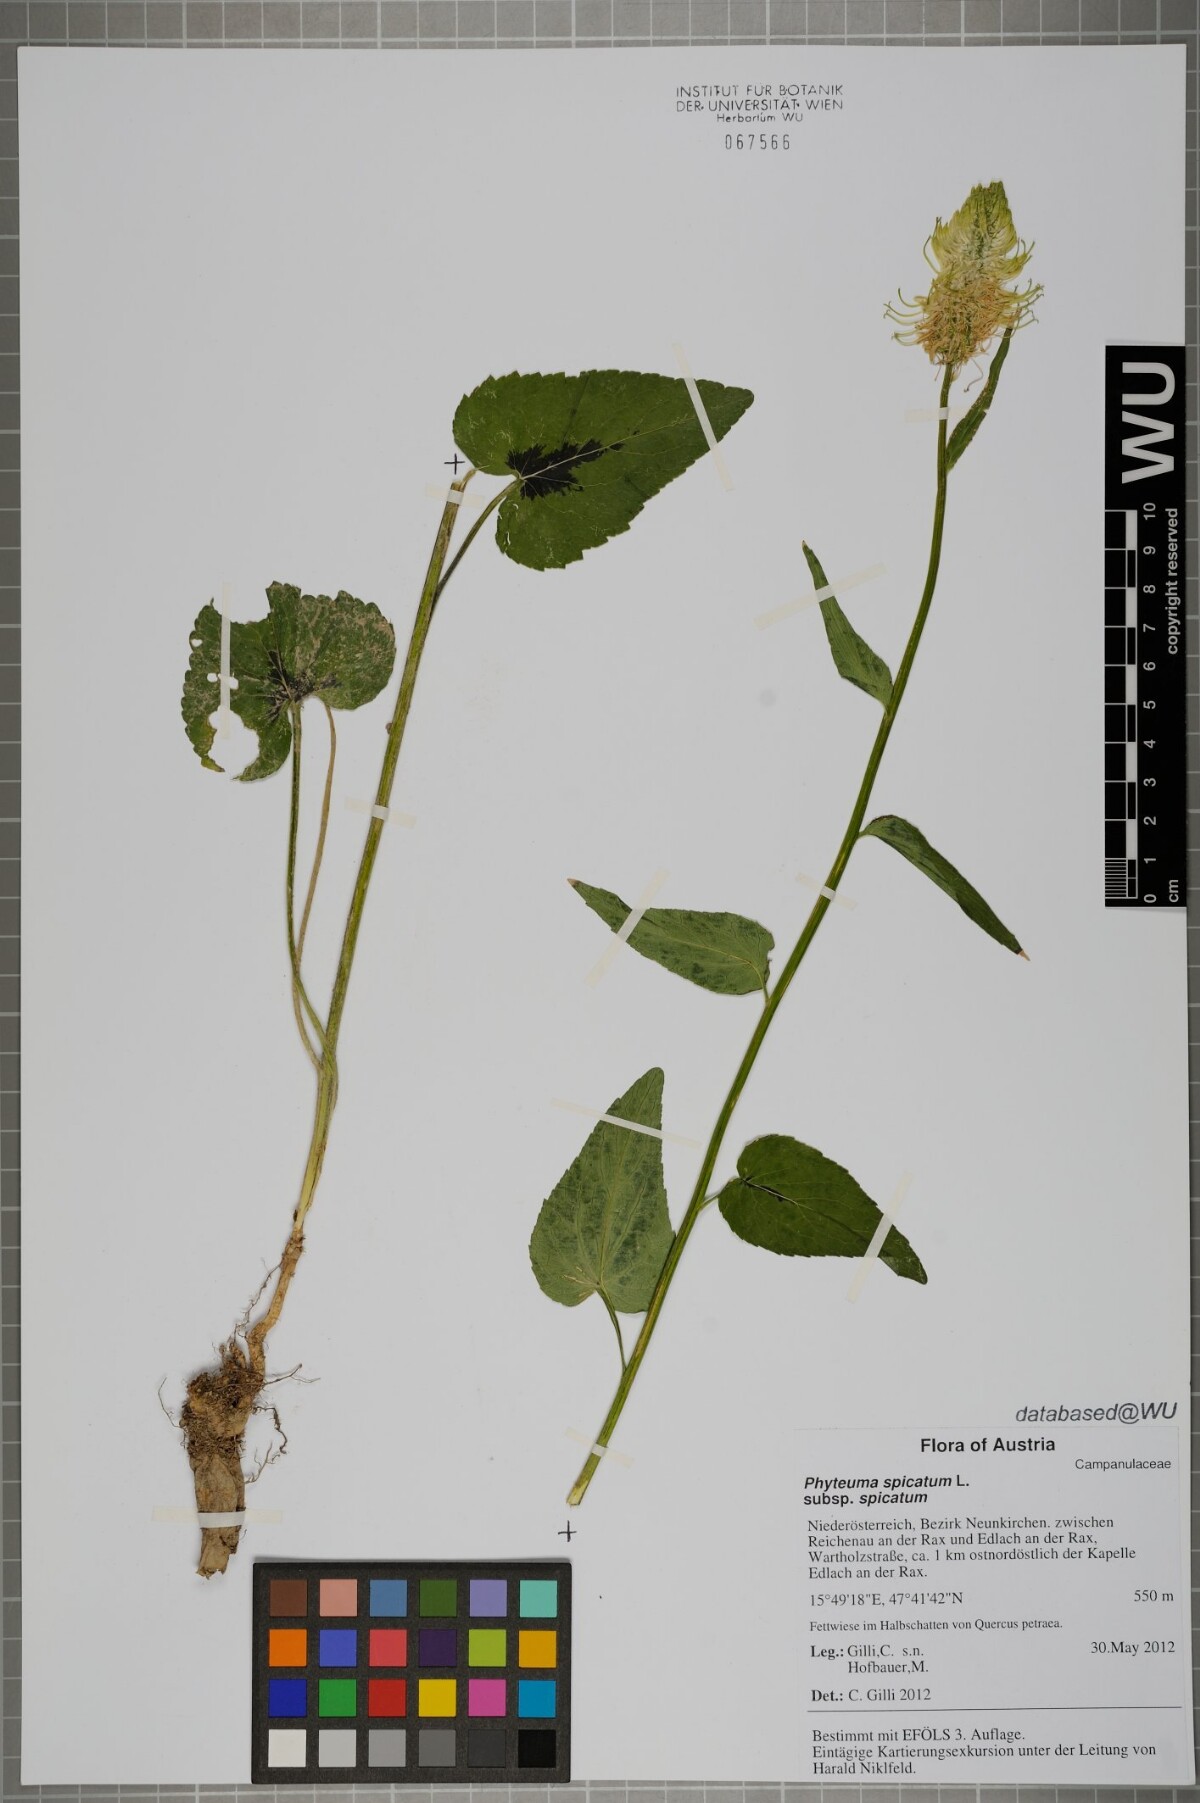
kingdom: Plantae
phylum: Tracheophyta
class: Magnoliopsida
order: Asterales
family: Campanulaceae
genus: Phyteuma
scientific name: Phyteuma spicatum
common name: Spiked rampion
